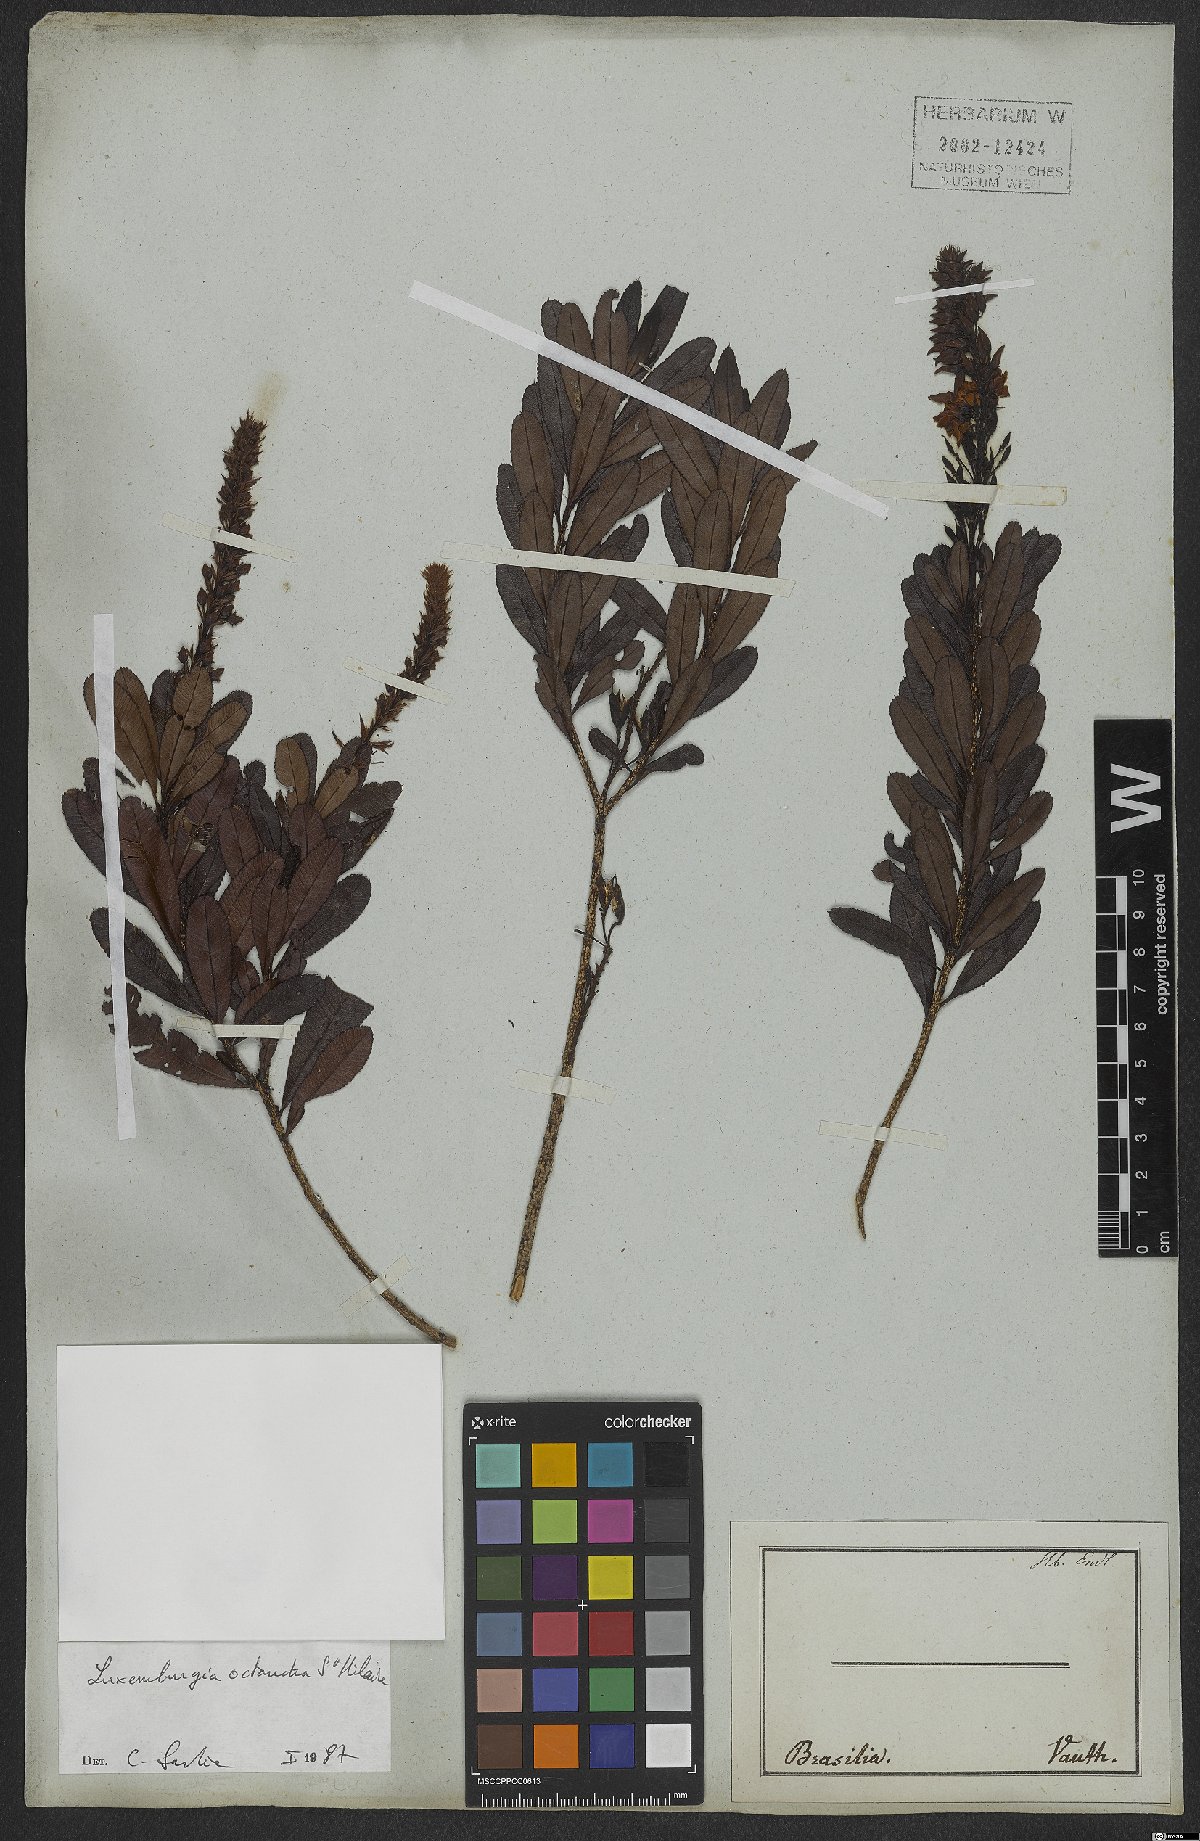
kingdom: Plantae
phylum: Tracheophyta
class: Magnoliopsida
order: Malpighiales
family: Ochnaceae
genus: Luxemburgia
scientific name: Luxemburgia octandra
